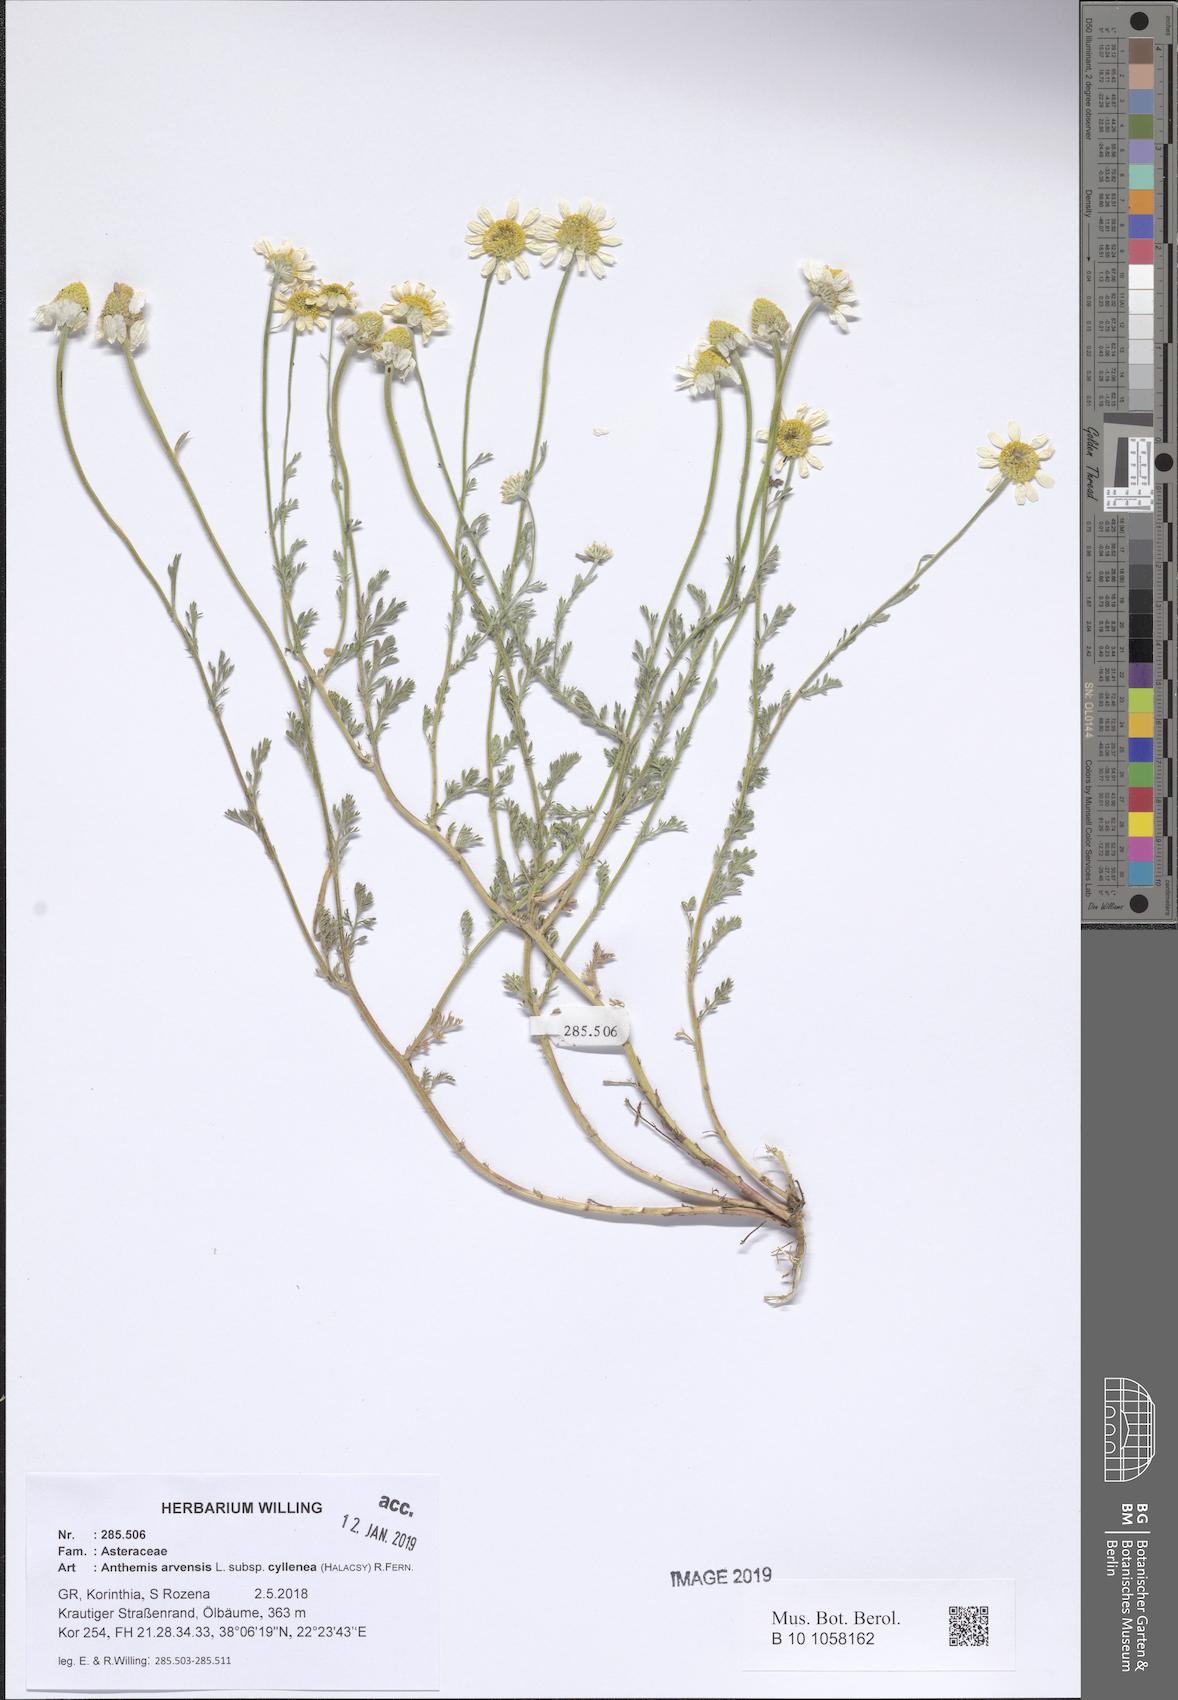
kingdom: Plantae
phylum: Tracheophyta
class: Magnoliopsida
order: Asterales
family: Asteraceae
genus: Anthemis
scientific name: Anthemis arvensis
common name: Corn chamomile
